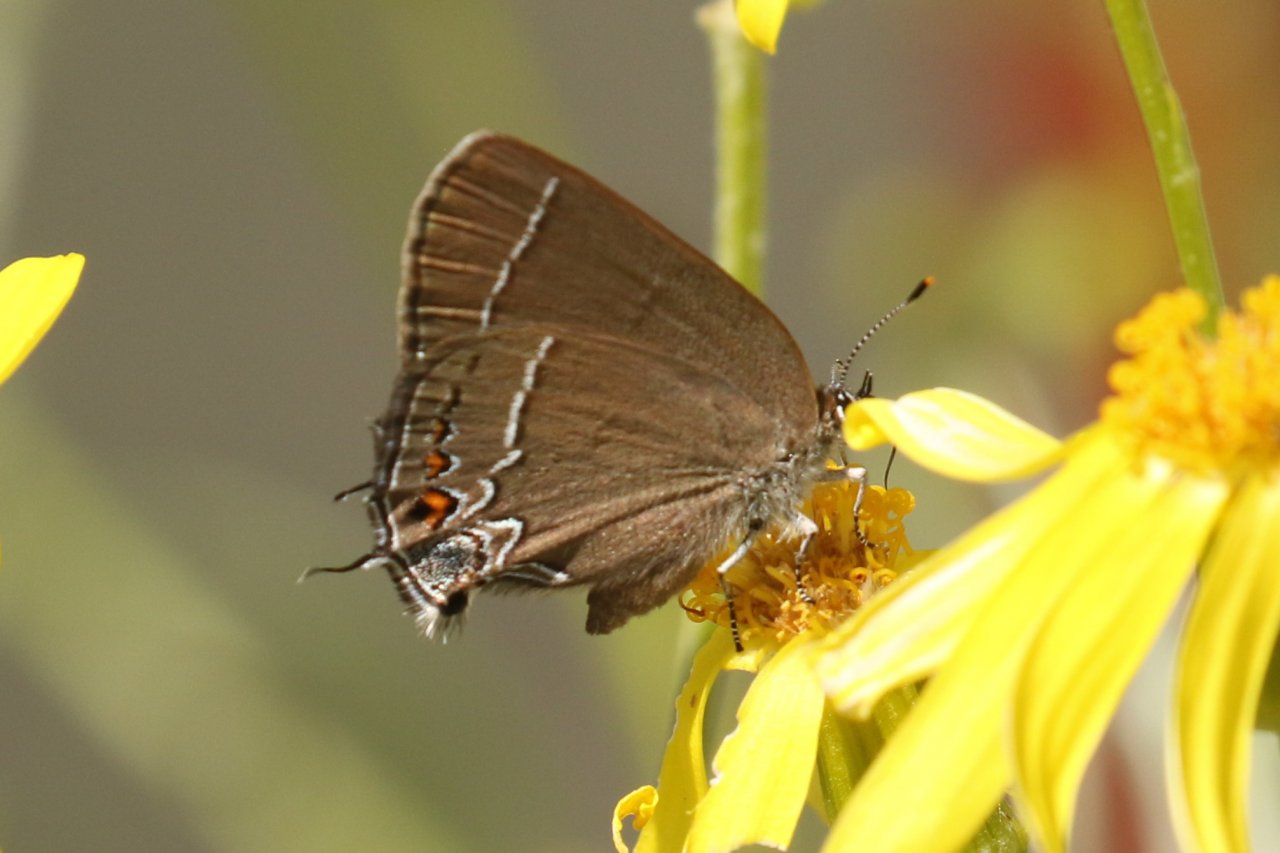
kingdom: Animalia
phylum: Arthropoda
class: Insecta
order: Lepidoptera
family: Lycaenidae
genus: Fixsenia
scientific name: Fixsenia polingi
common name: Poling's Hairstreak
